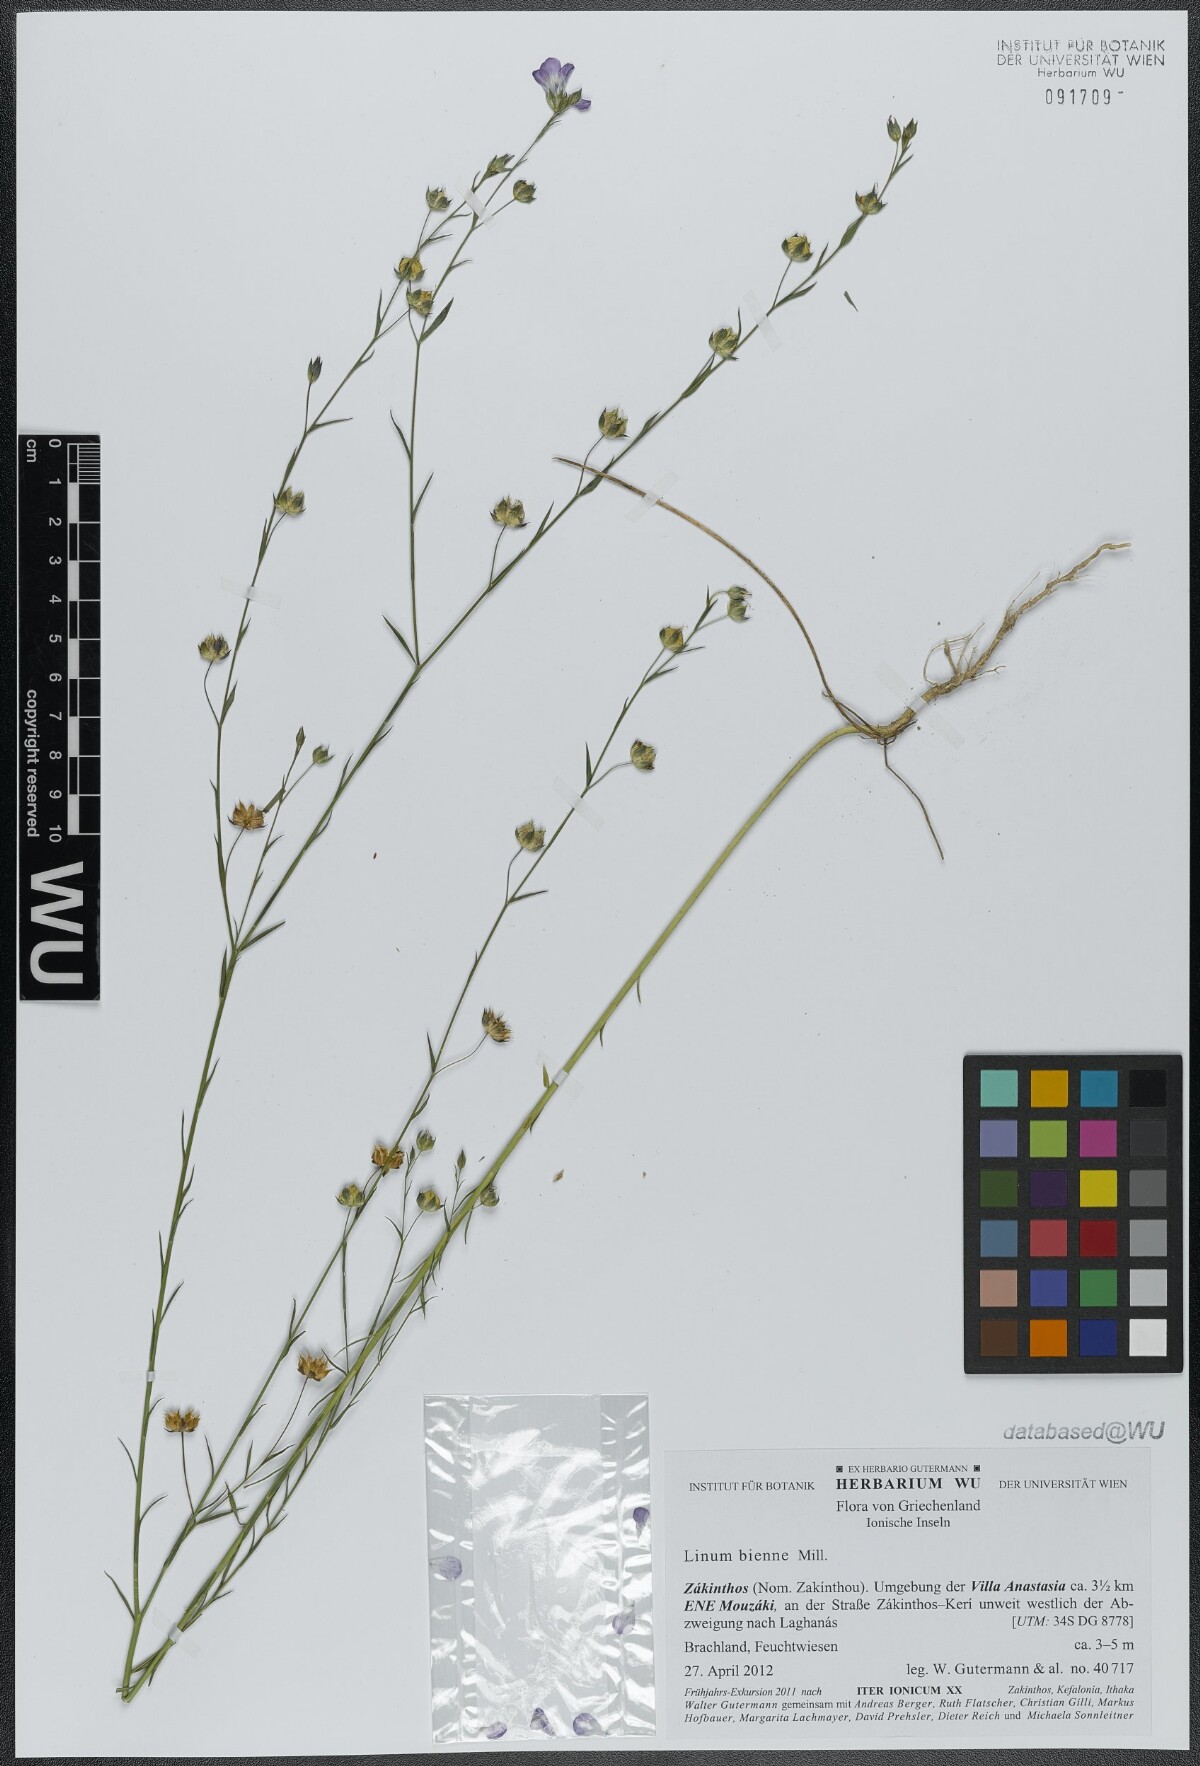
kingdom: Plantae
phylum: Tracheophyta
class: Magnoliopsida
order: Malpighiales
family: Linaceae
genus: Linum
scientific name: Linum bienne
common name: Pale flax
